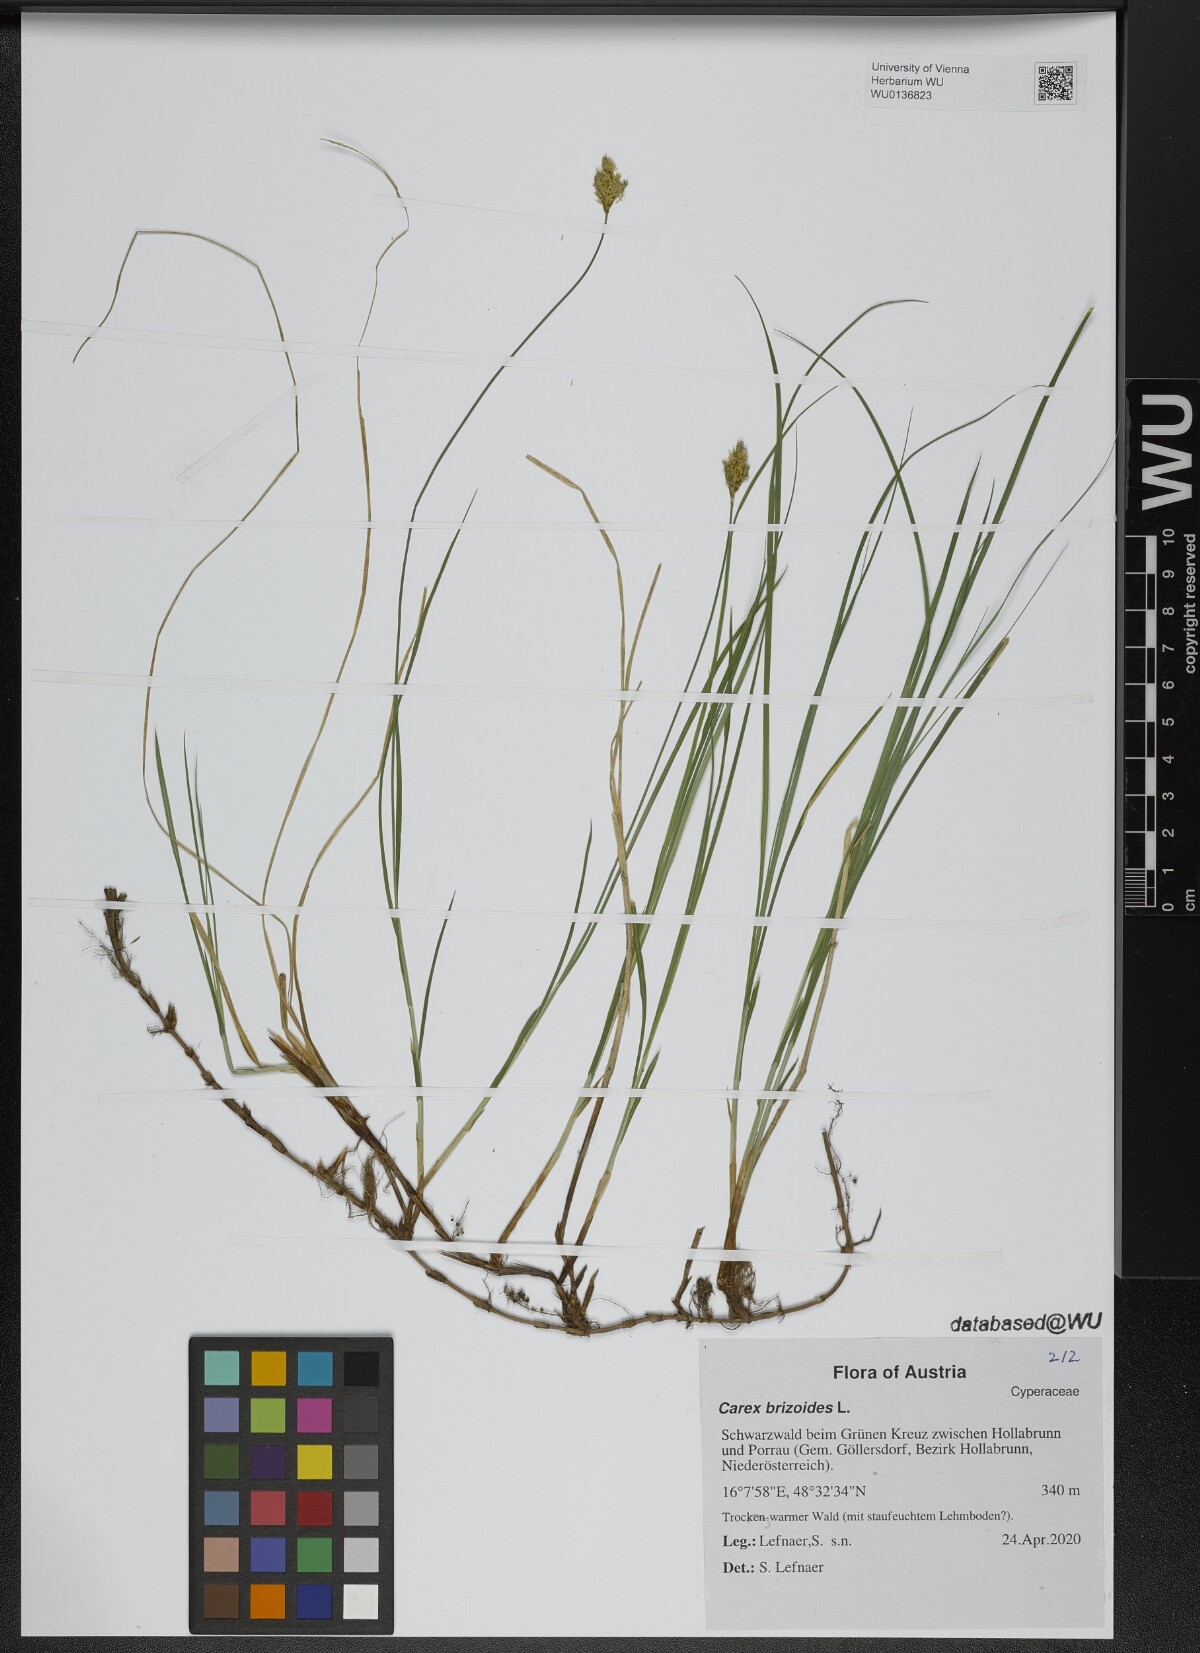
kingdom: Plantae
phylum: Tracheophyta
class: Liliopsida
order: Poales
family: Cyperaceae
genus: Carex
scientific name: Carex brizoides
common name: Quaking-grass sedge
